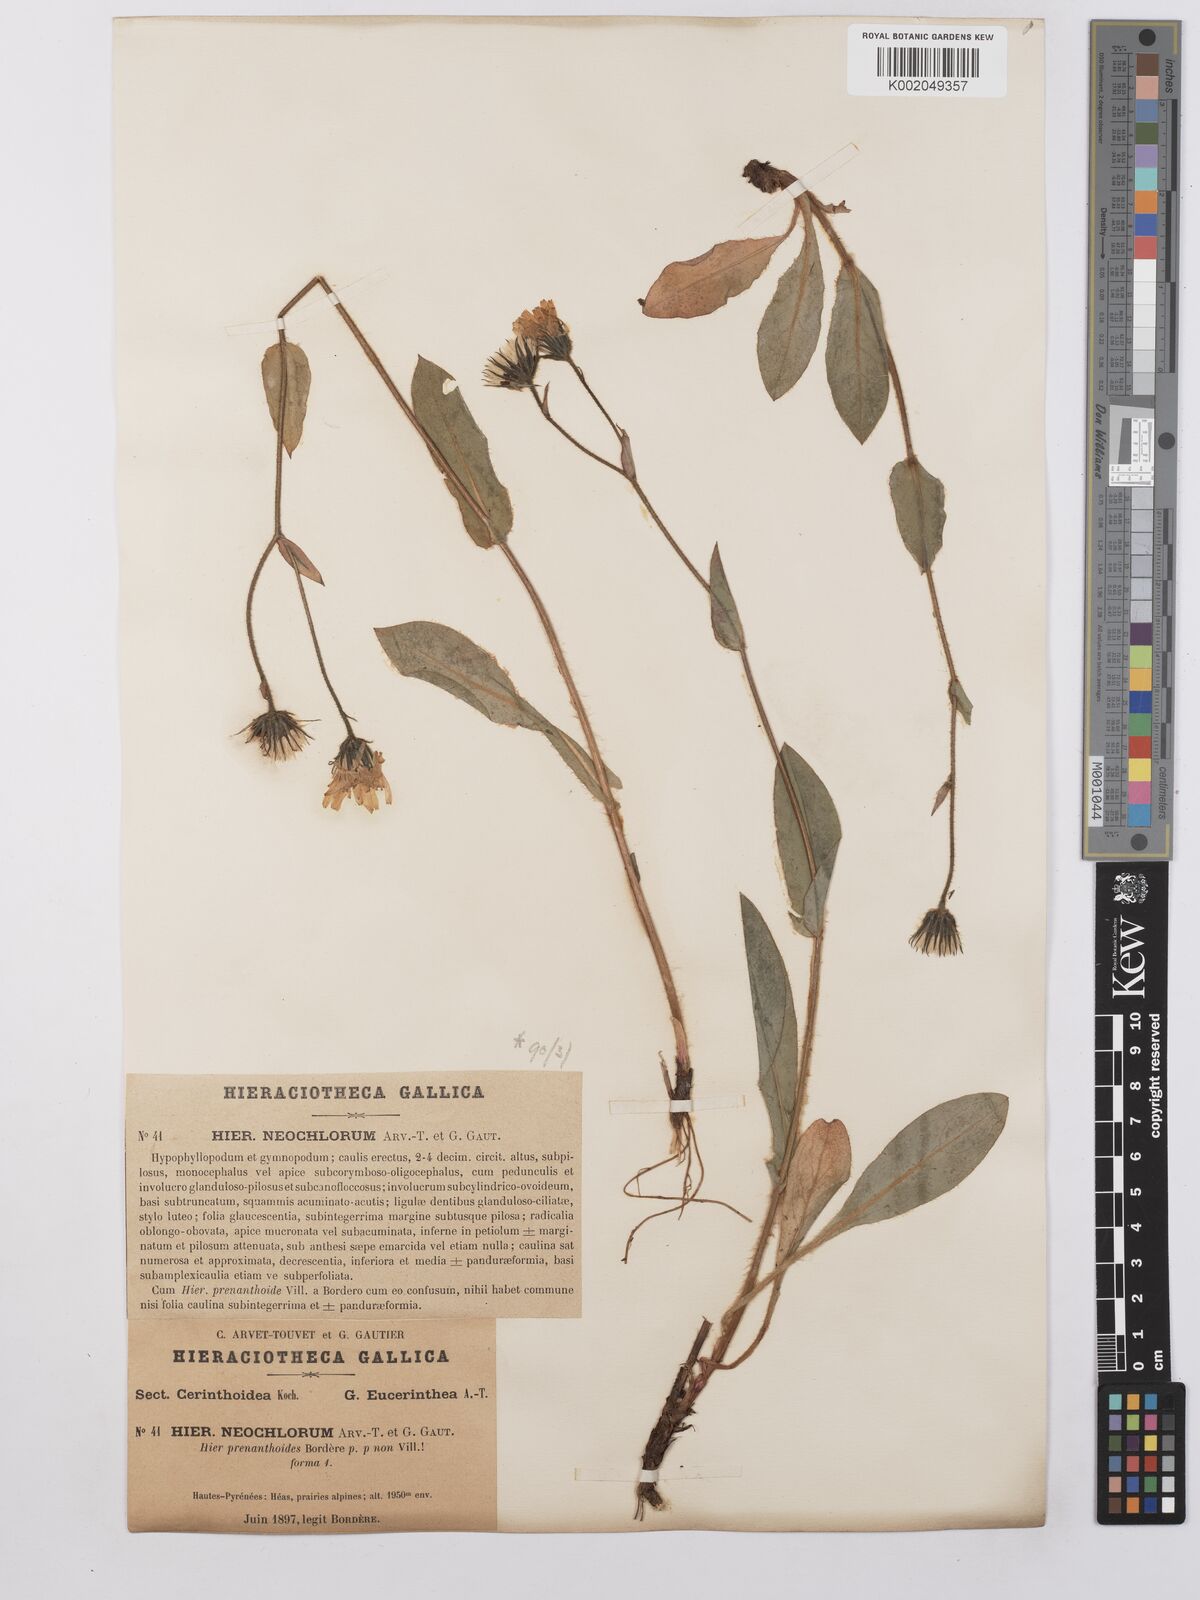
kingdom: Plantae
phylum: Tracheophyta
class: Magnoliopsida
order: Asterales
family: Asteraceae
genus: Hieracium
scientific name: Hieracium cerinthoides
